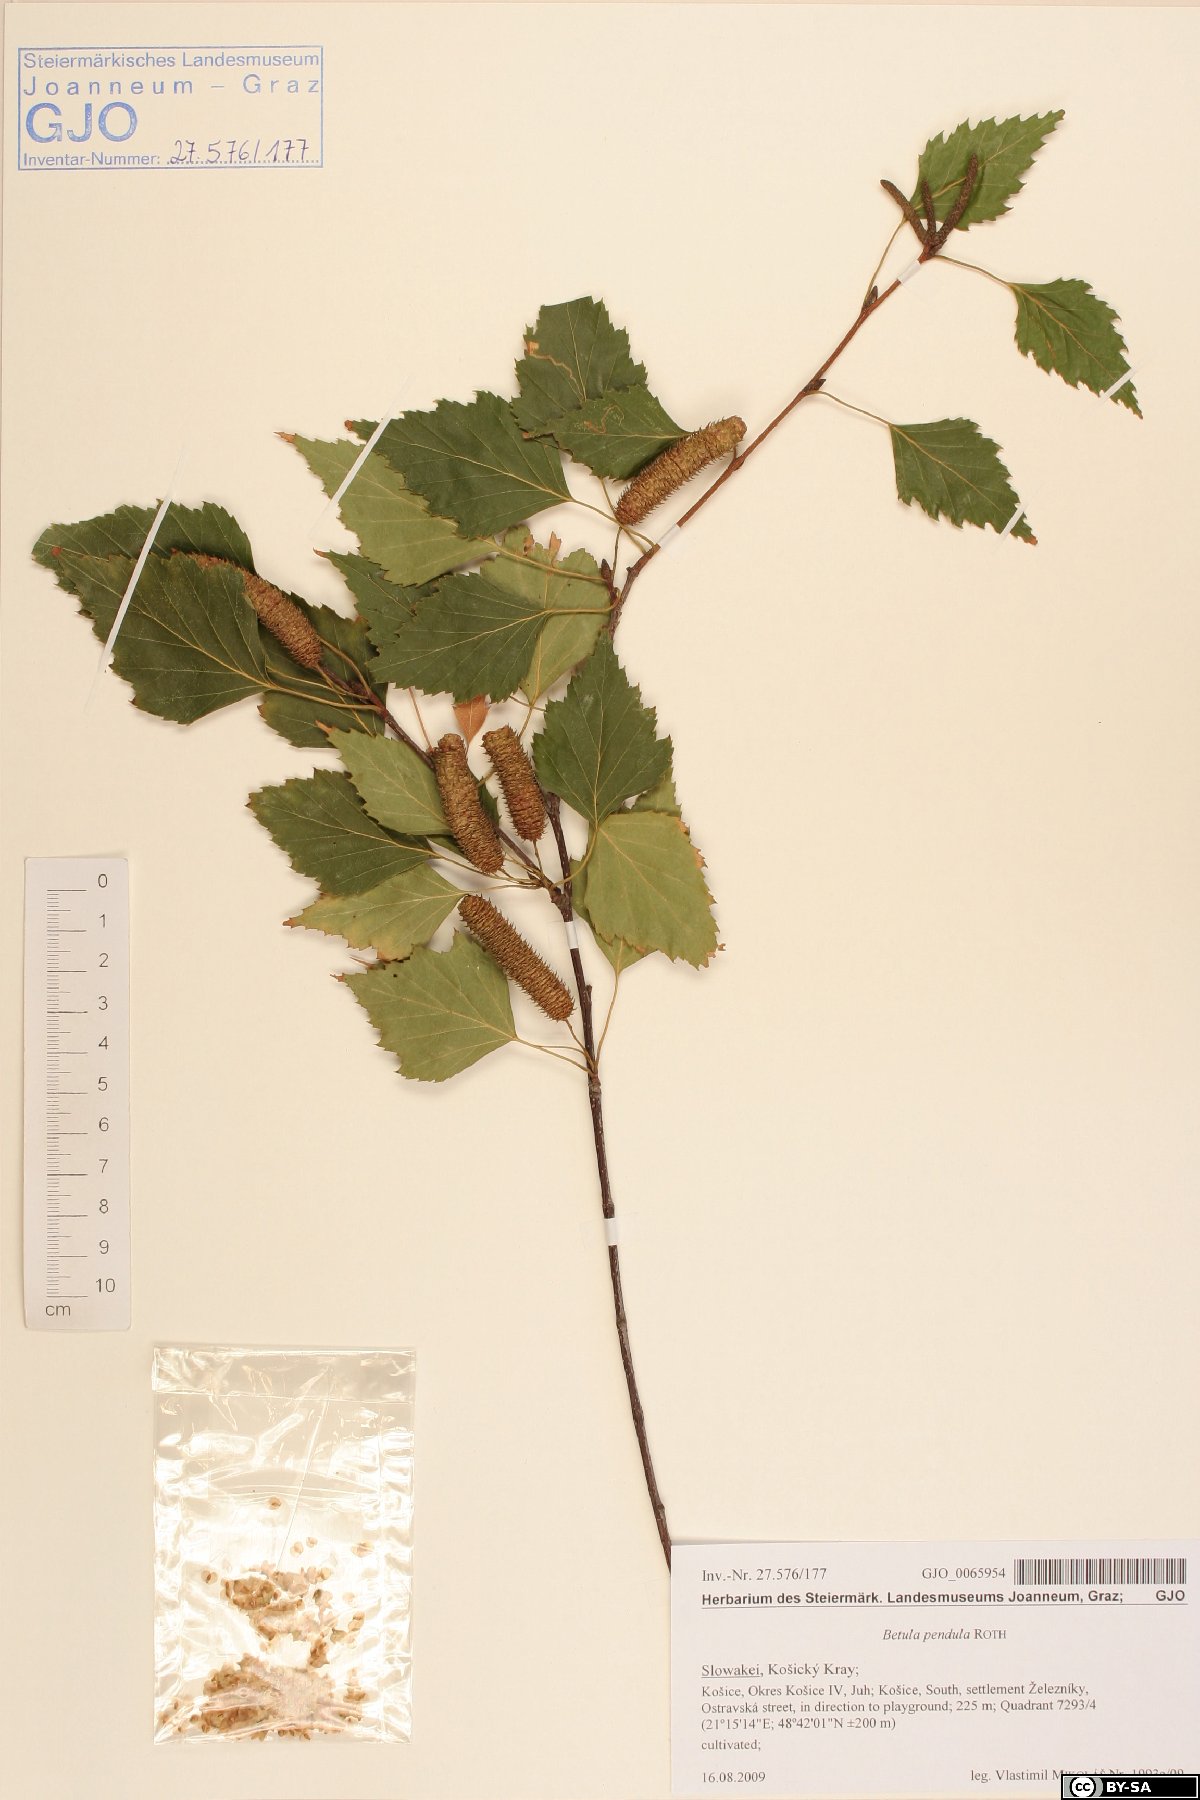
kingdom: Plantae
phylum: Tracheophyta
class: Magnoliopsida
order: Fagales
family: Betulaceae
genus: Betula
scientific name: Betula pendula
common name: Silver birch
